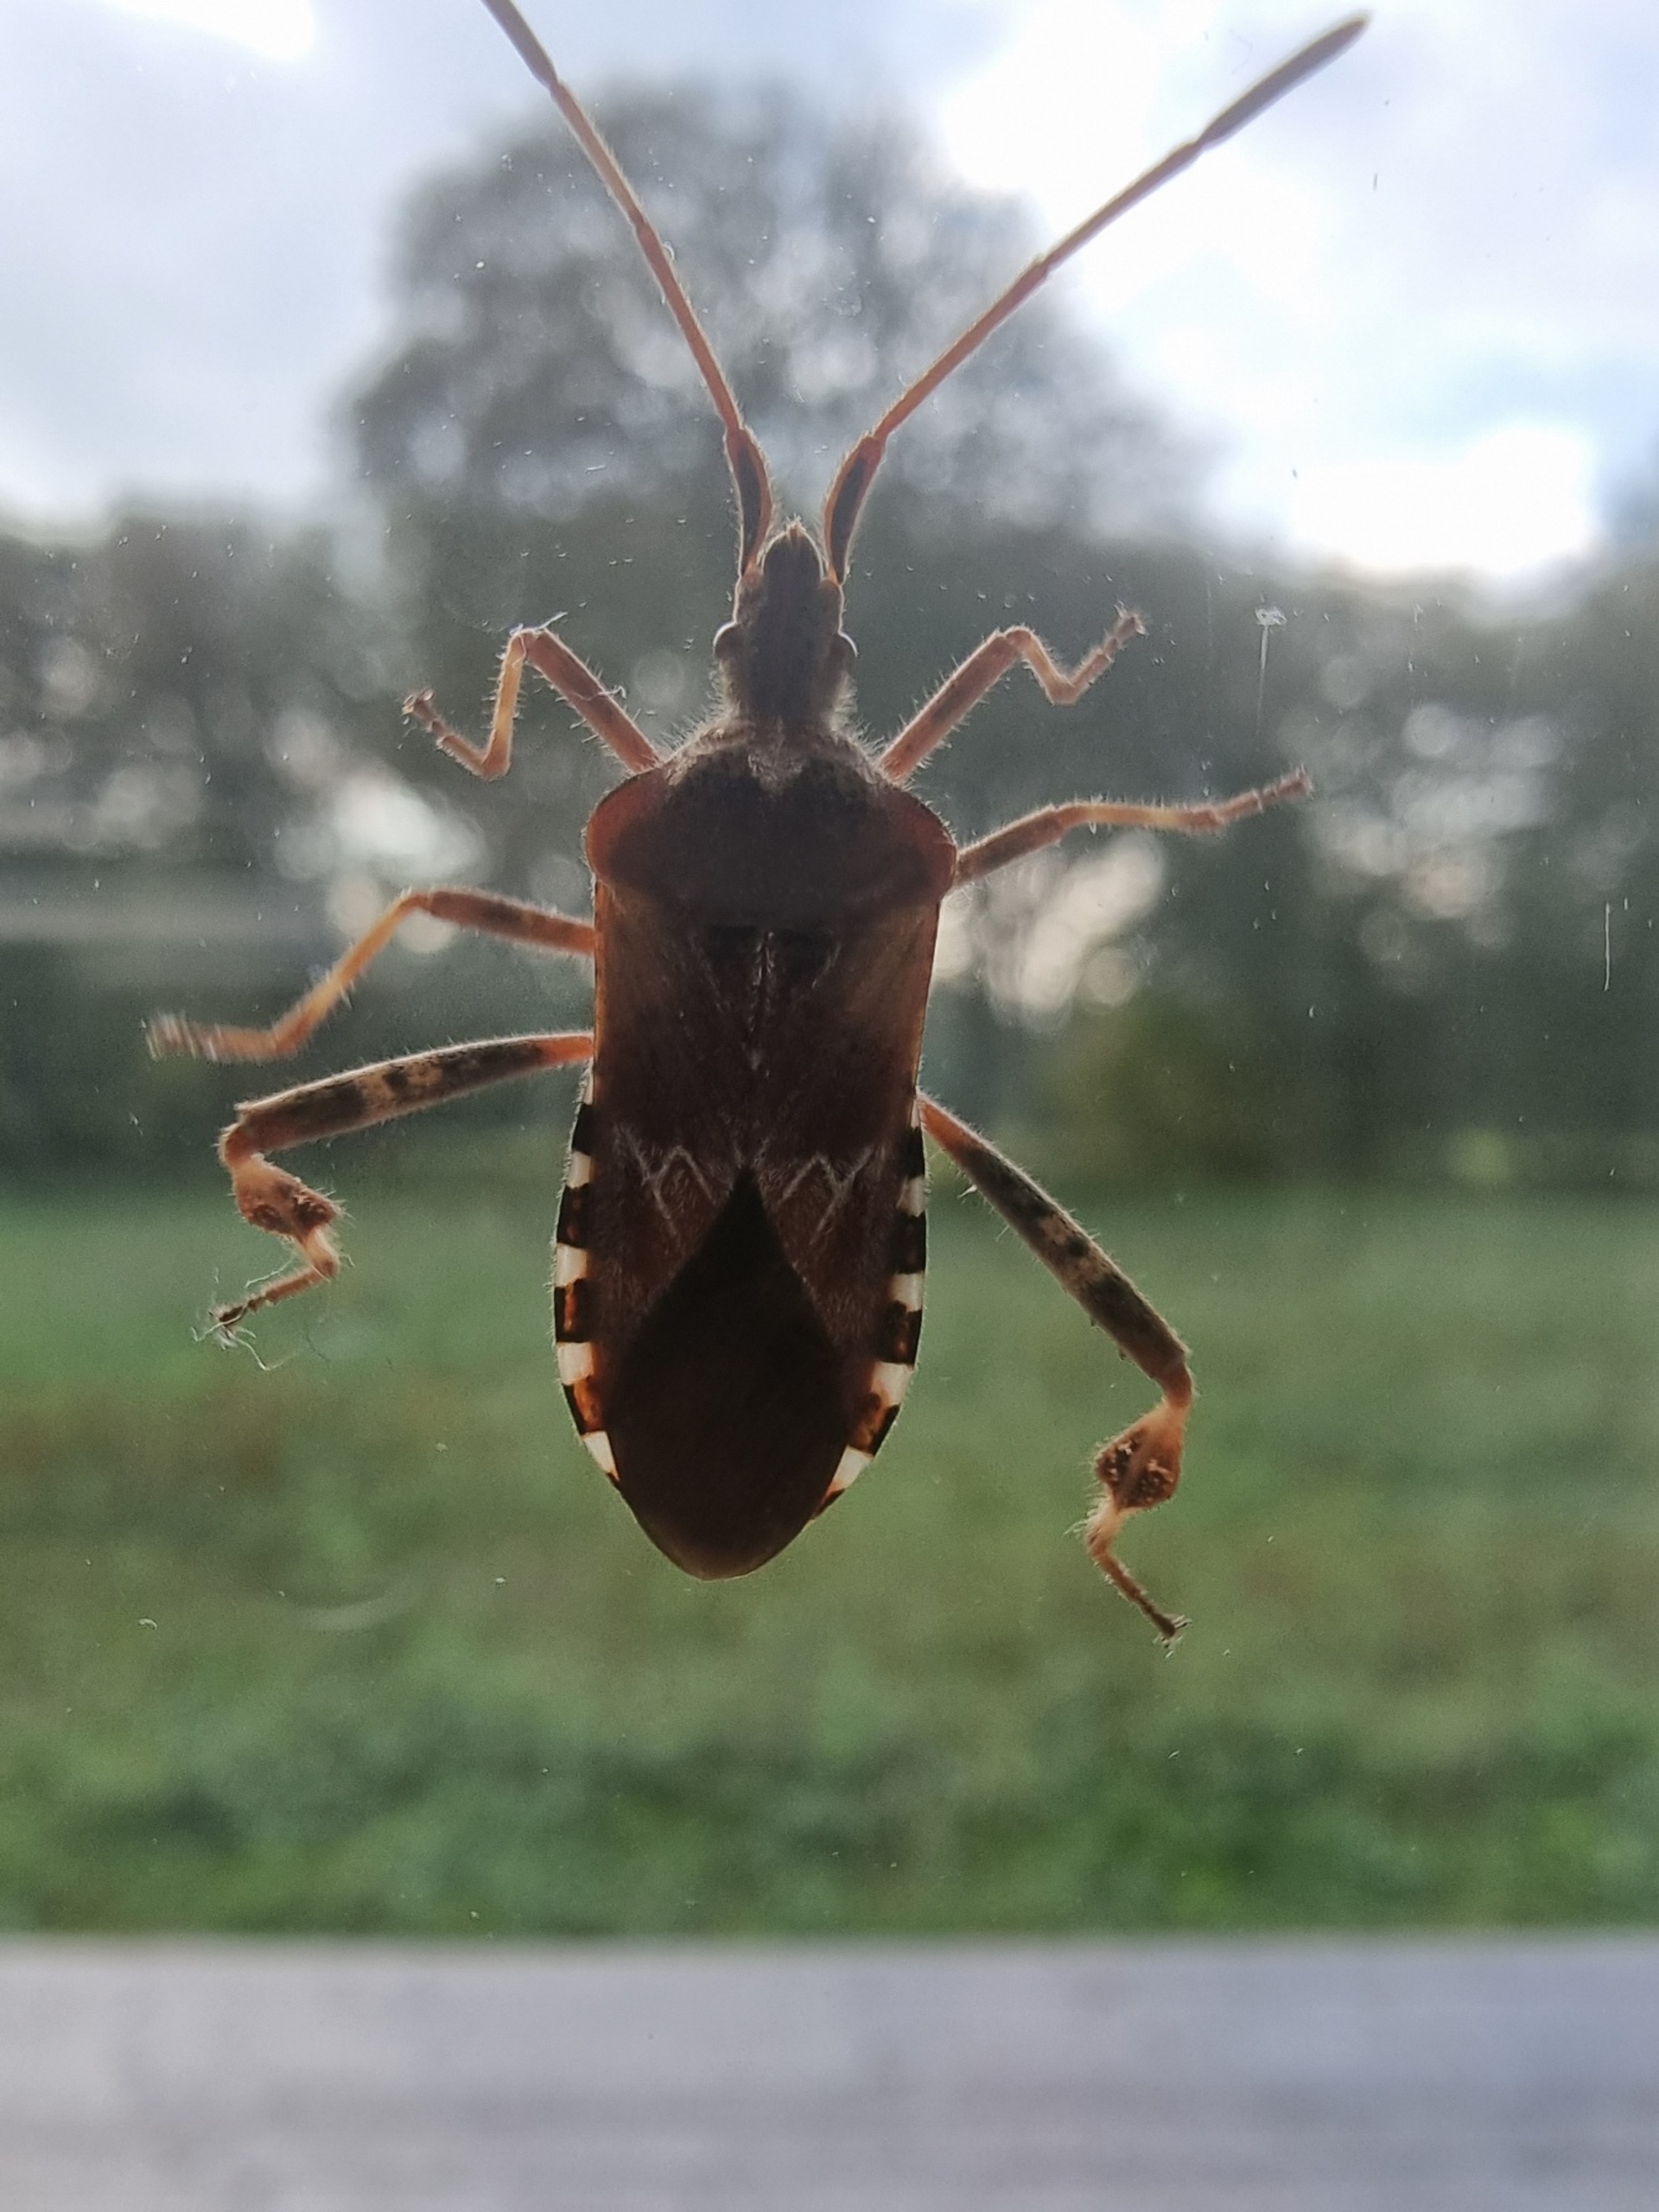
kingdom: Animalia
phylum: Arthropoda
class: Insecta
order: Hemiptera
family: Coreidae
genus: Leptoglossus
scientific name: Leptoglossus occidentalis
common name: Amerikansk fyrretæge
